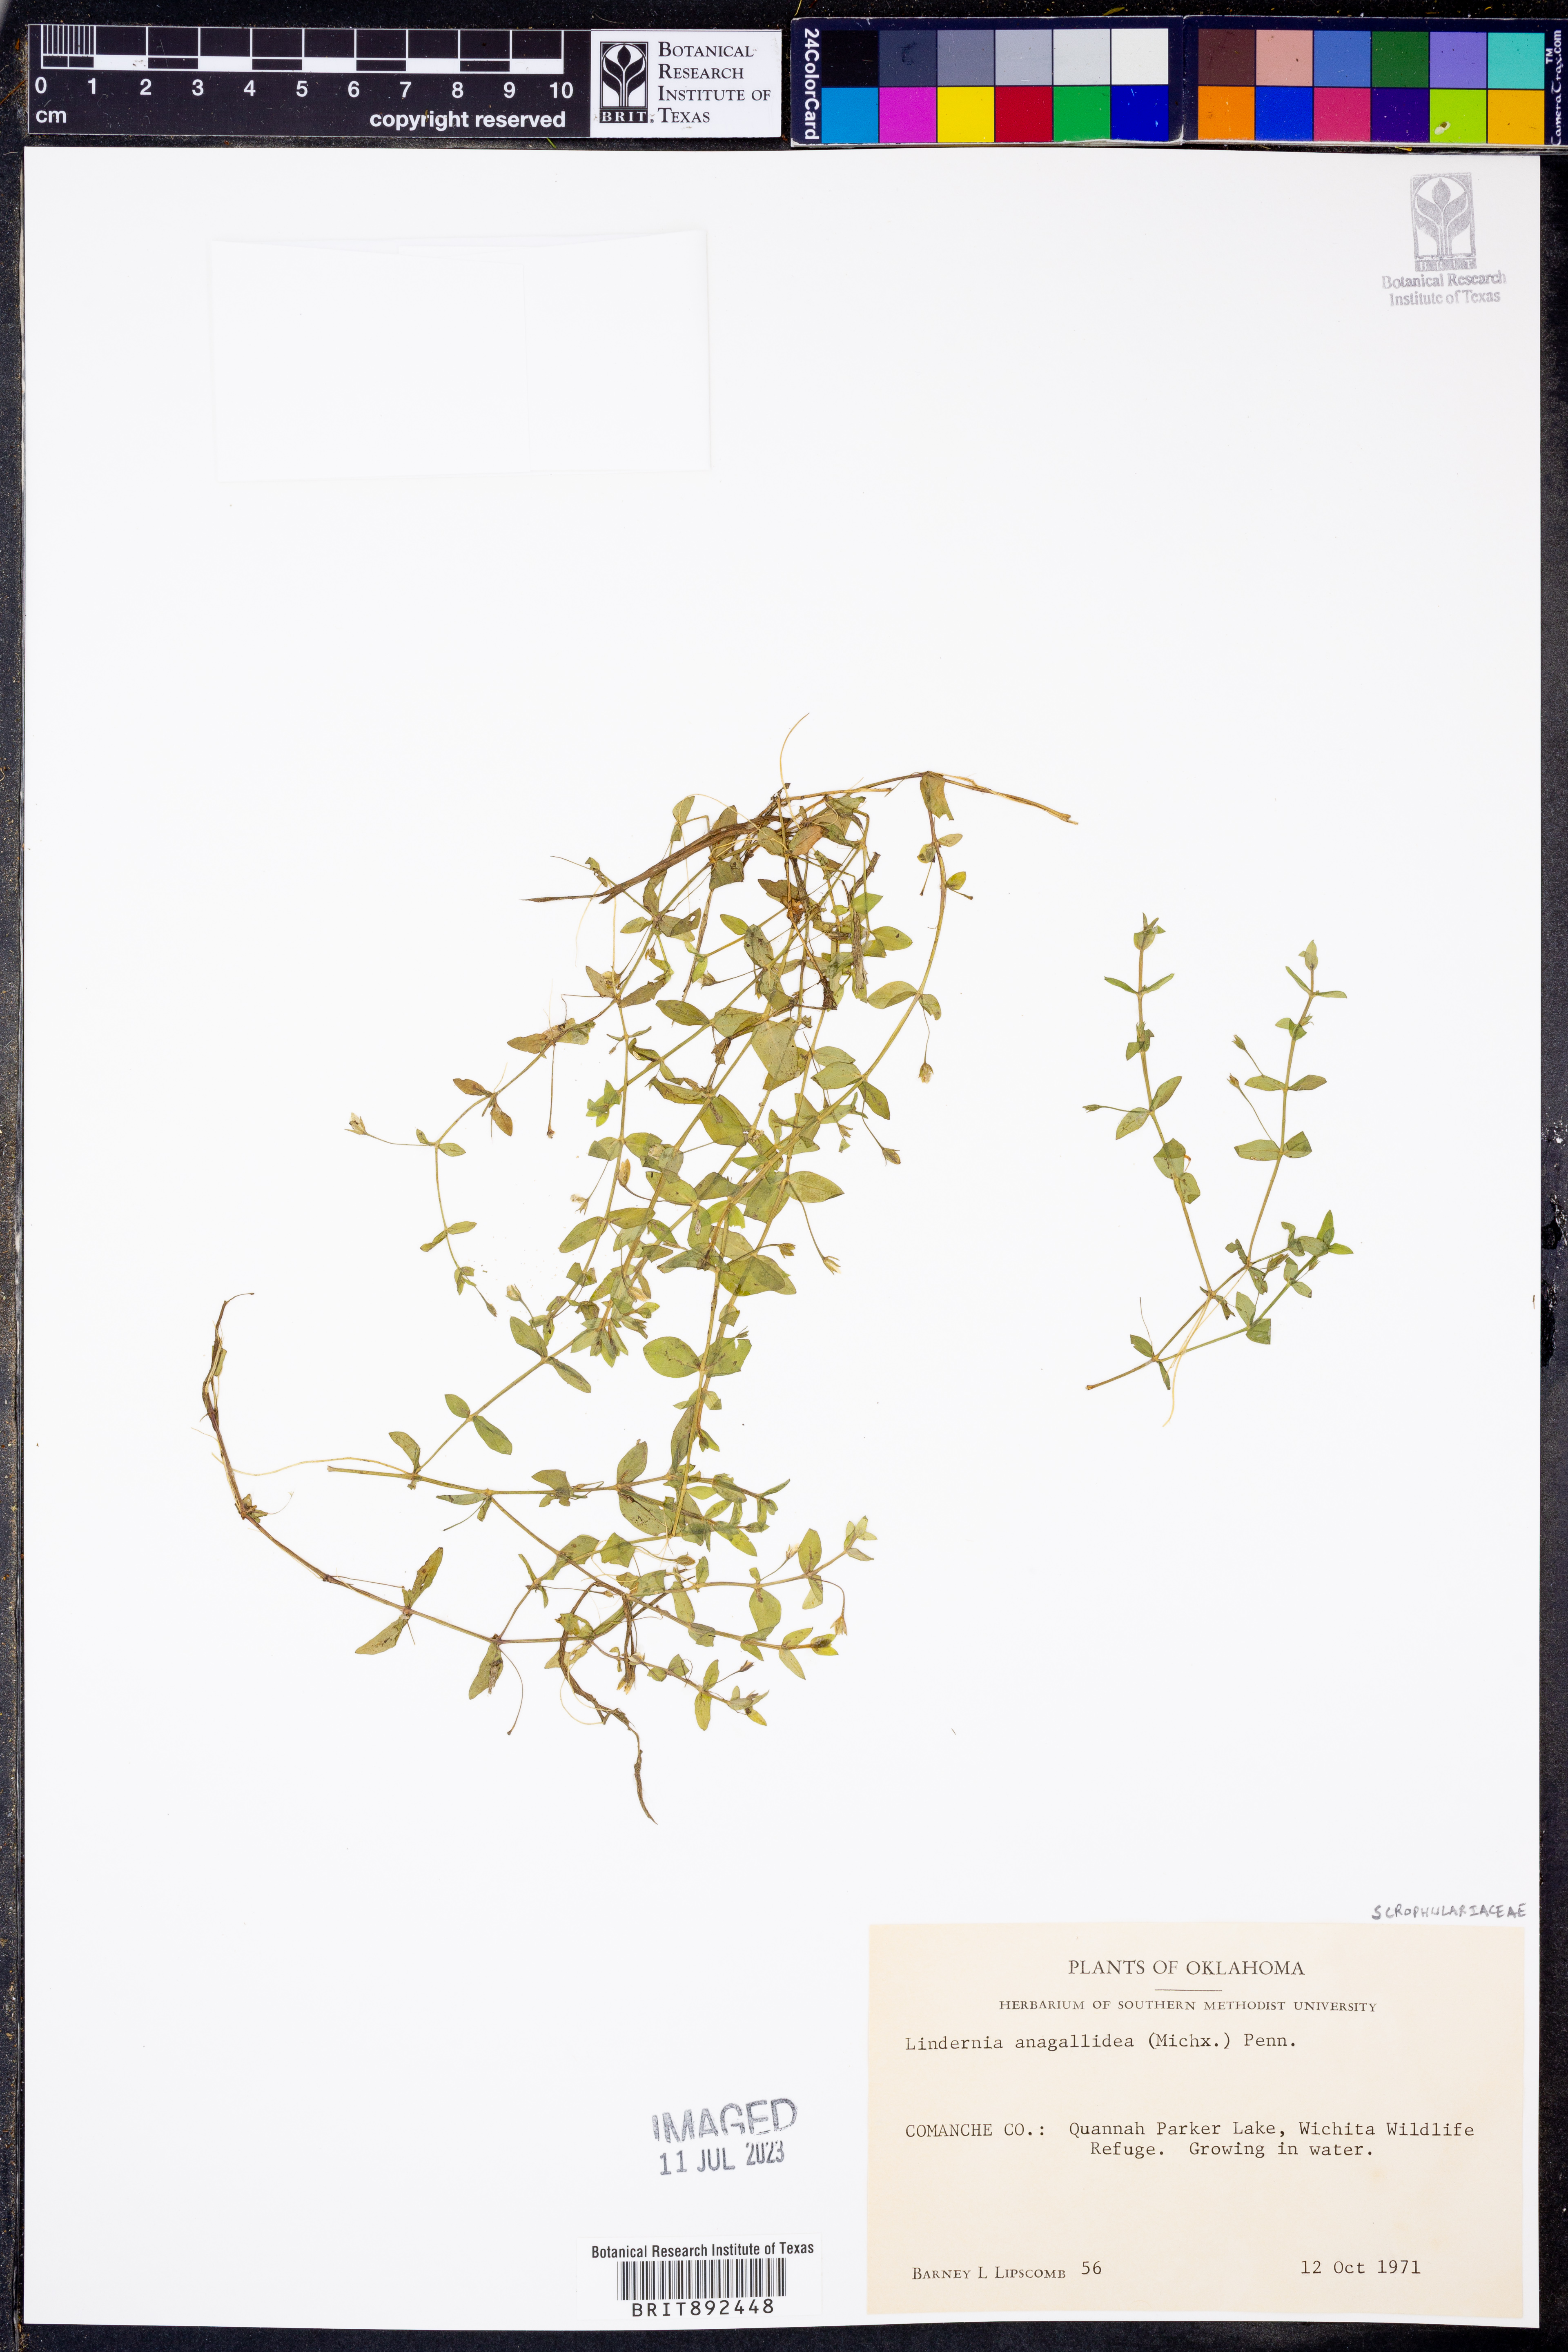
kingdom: Plantae
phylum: Tracheophyta
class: Magnoliopsida
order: Lamiales
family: Linderniaceae
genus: Lindernia
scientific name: Lindernia dubia
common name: Annual false pimpernel
